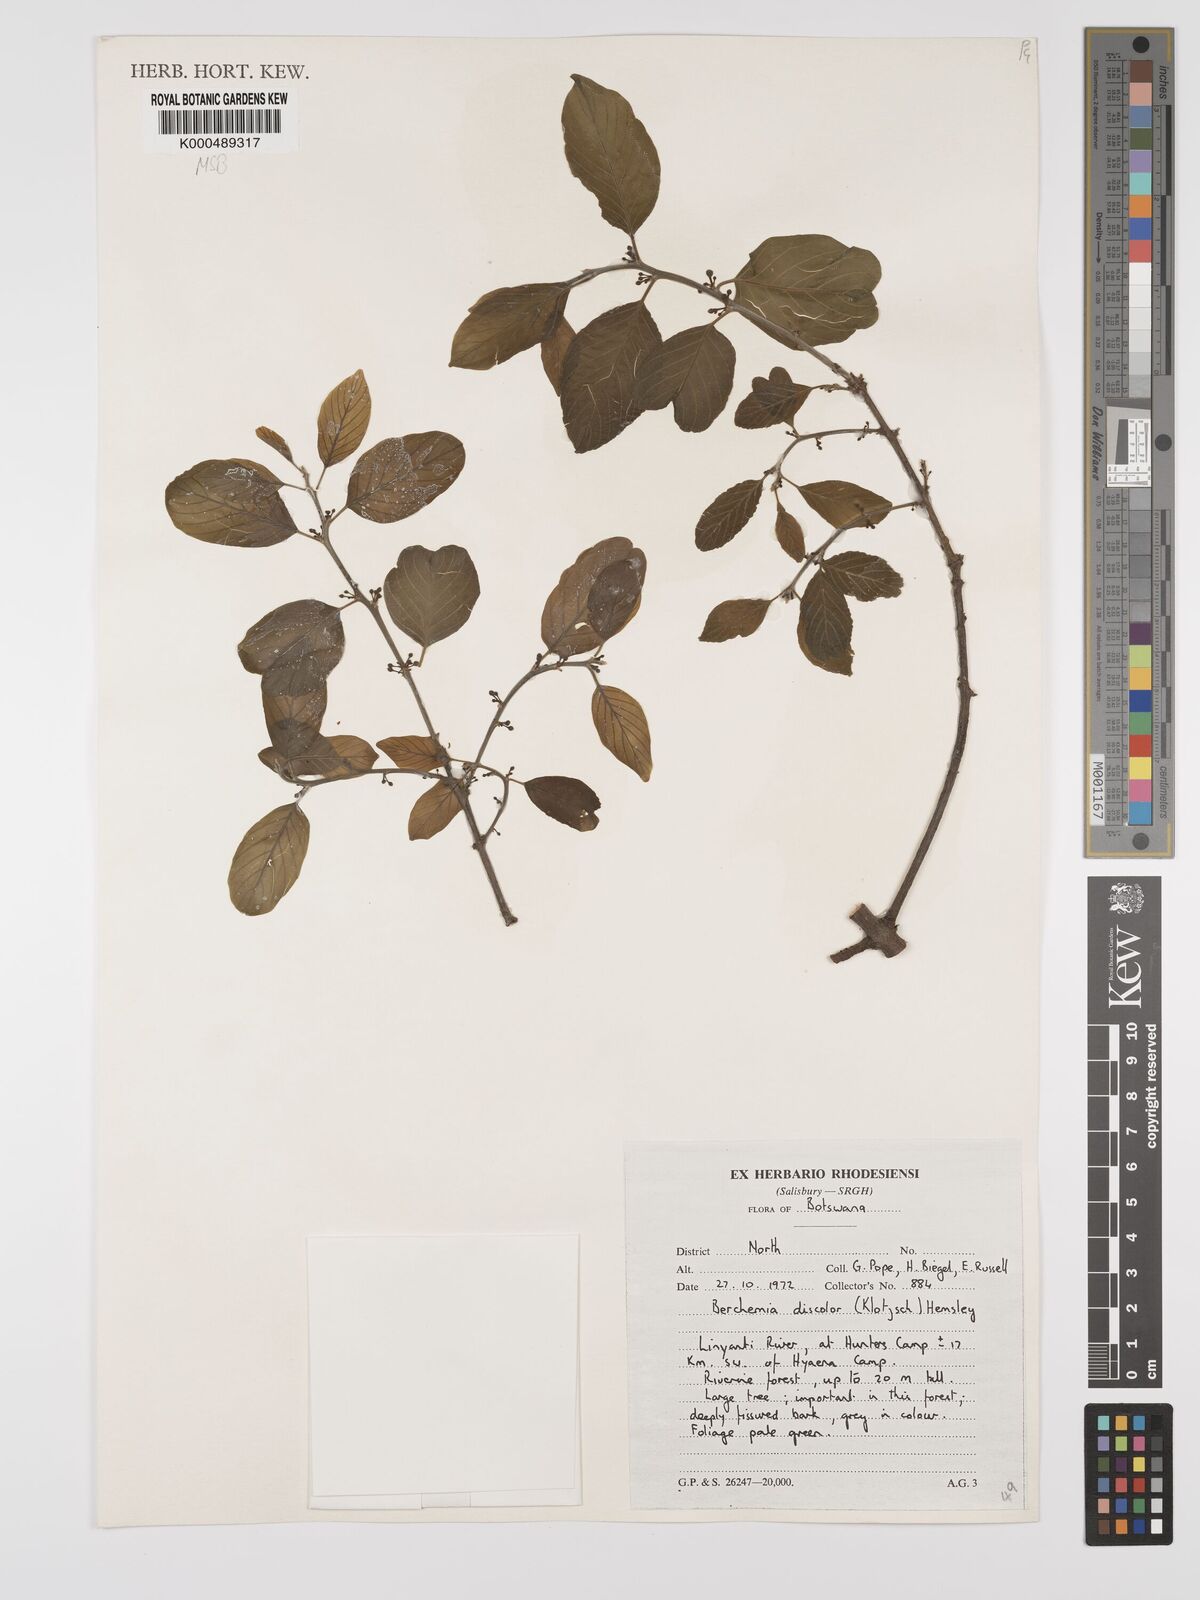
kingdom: Plantae
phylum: Tracheophyta
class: Magnoliopsida
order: Rosales
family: Rhamnaceae
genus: Phyllogeiton
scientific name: Phyllogeiton discolor
